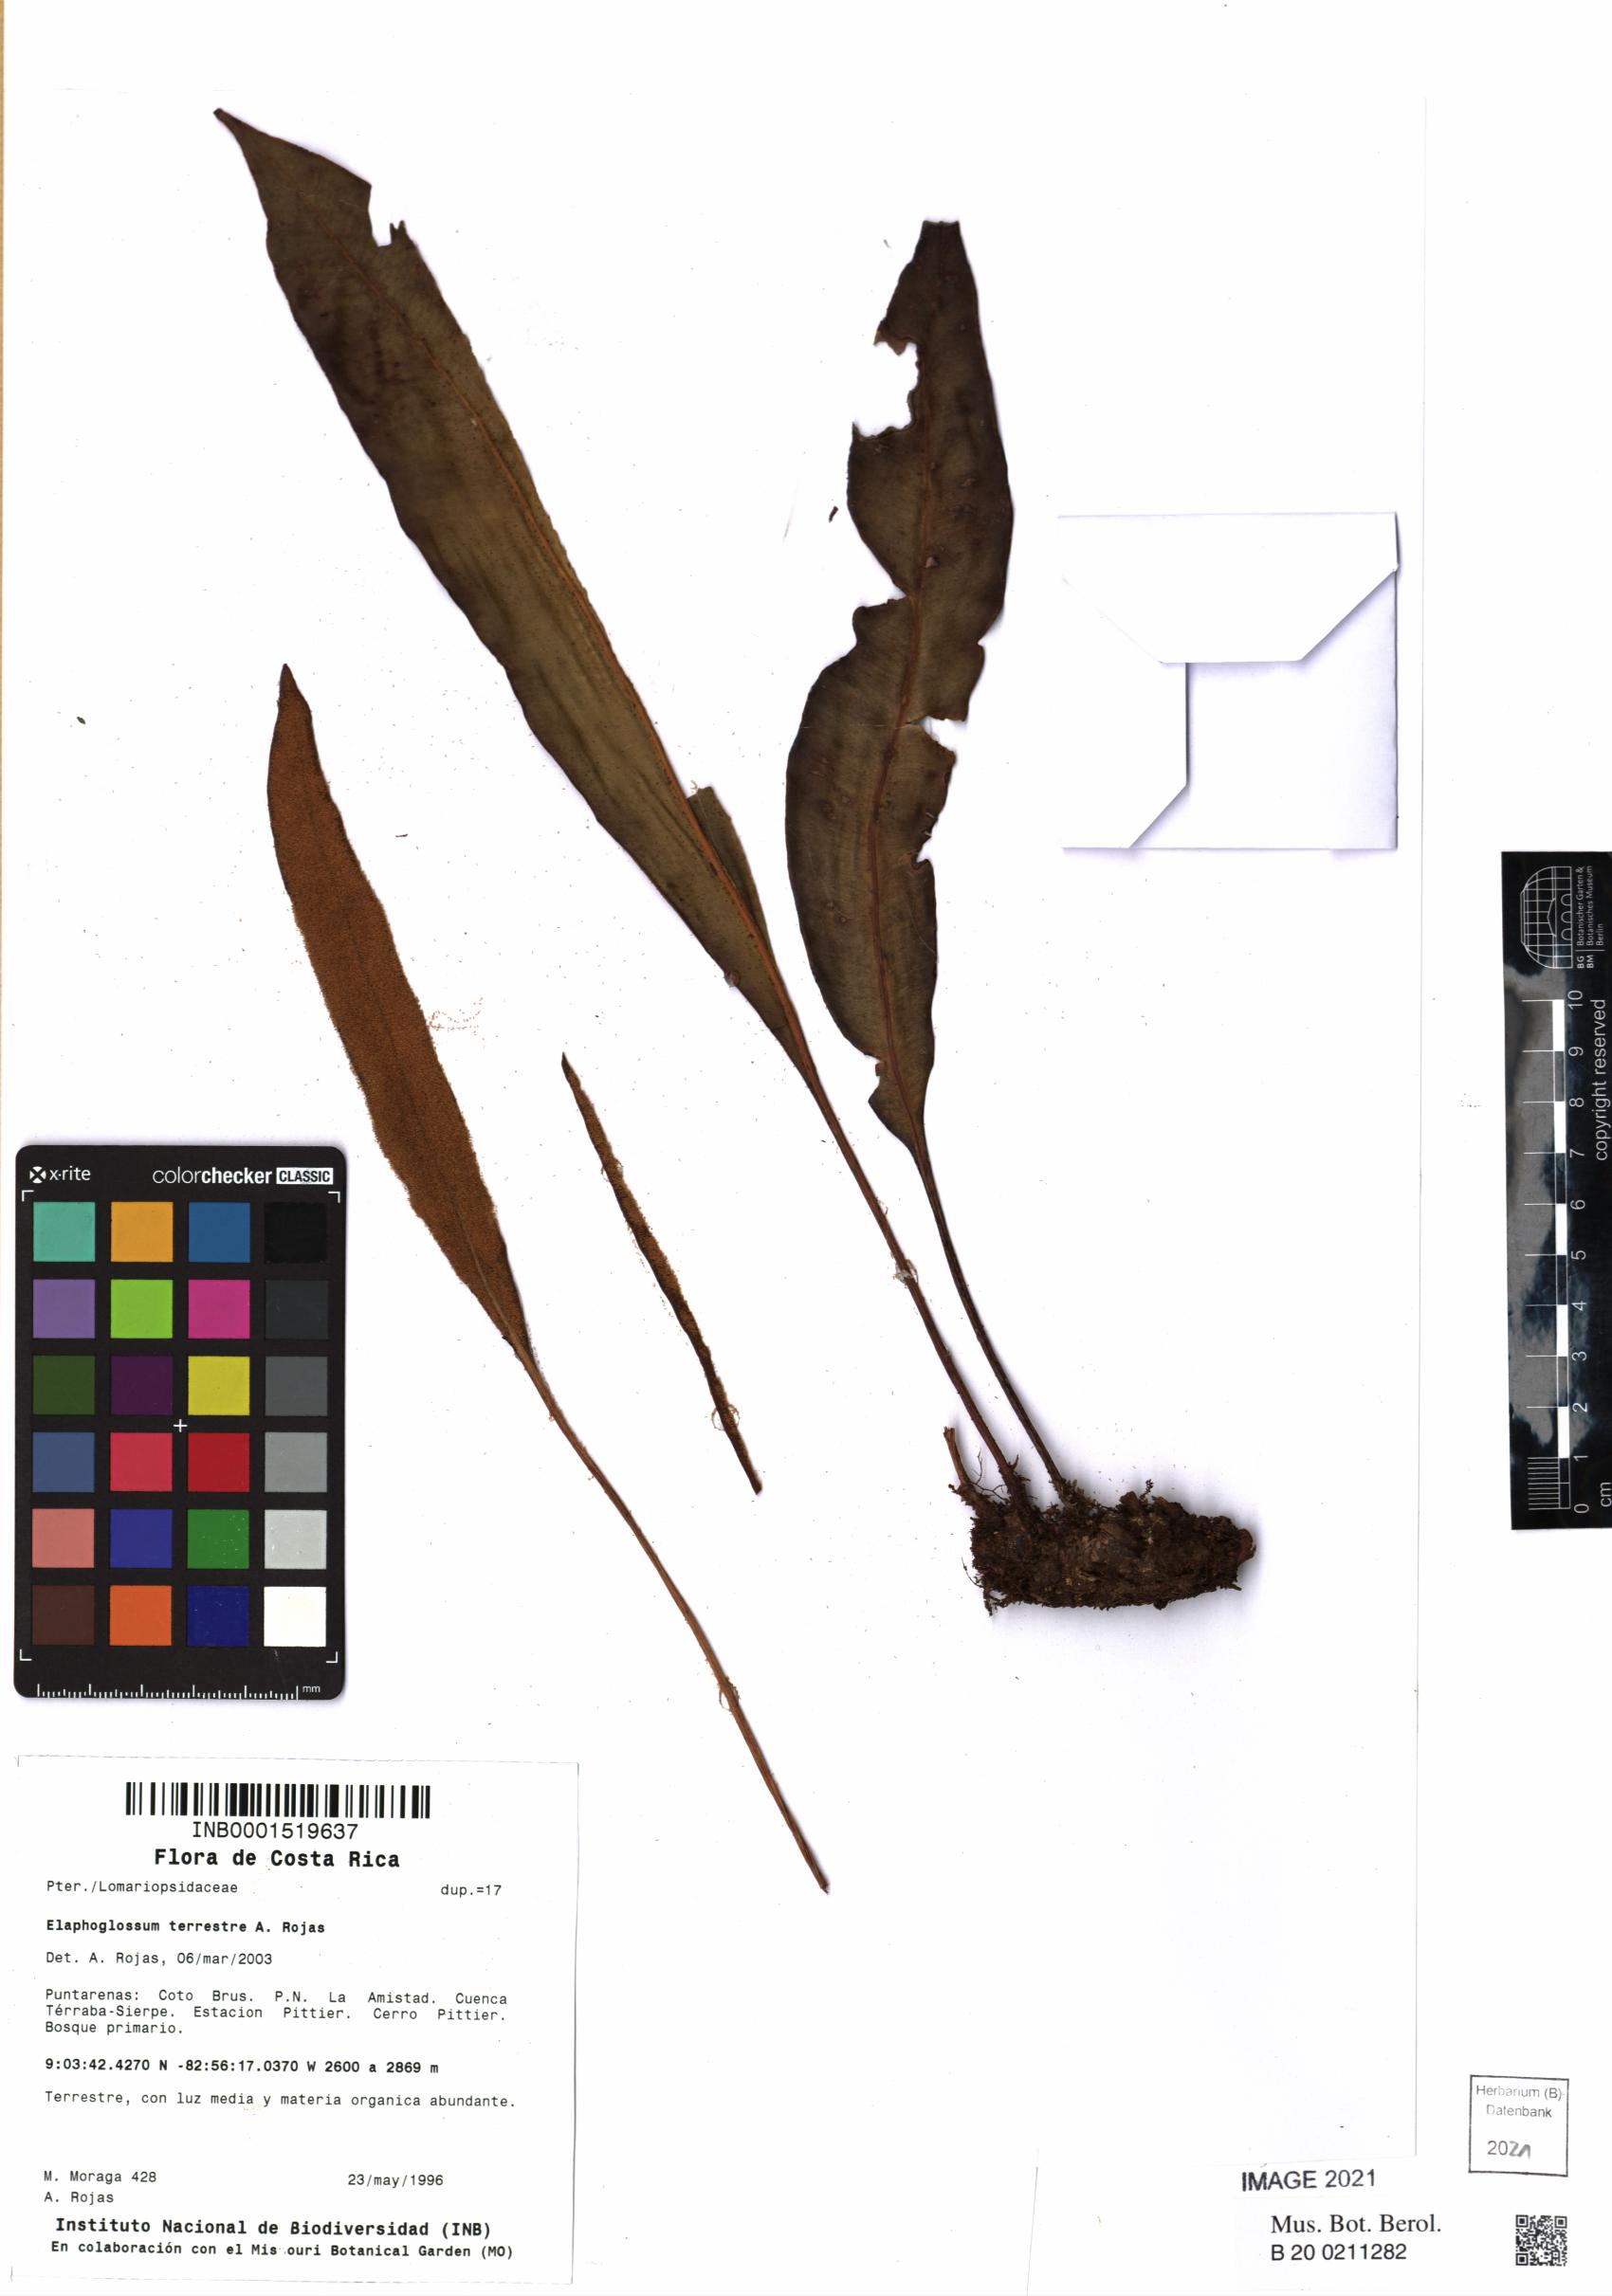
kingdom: Plantae
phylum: Tracheophyta
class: Polypodiopsida
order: Polypodiales
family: Dryopteridaceae
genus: Elaphoglossum
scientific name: Elaphoglossum terrestre
